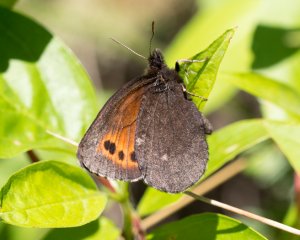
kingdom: Animalia
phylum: Arthropoda
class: Insecta
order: Lepidoptera
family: Nymphalidae
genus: Erebia
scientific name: Erebia disa
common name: Taiga Alpine
